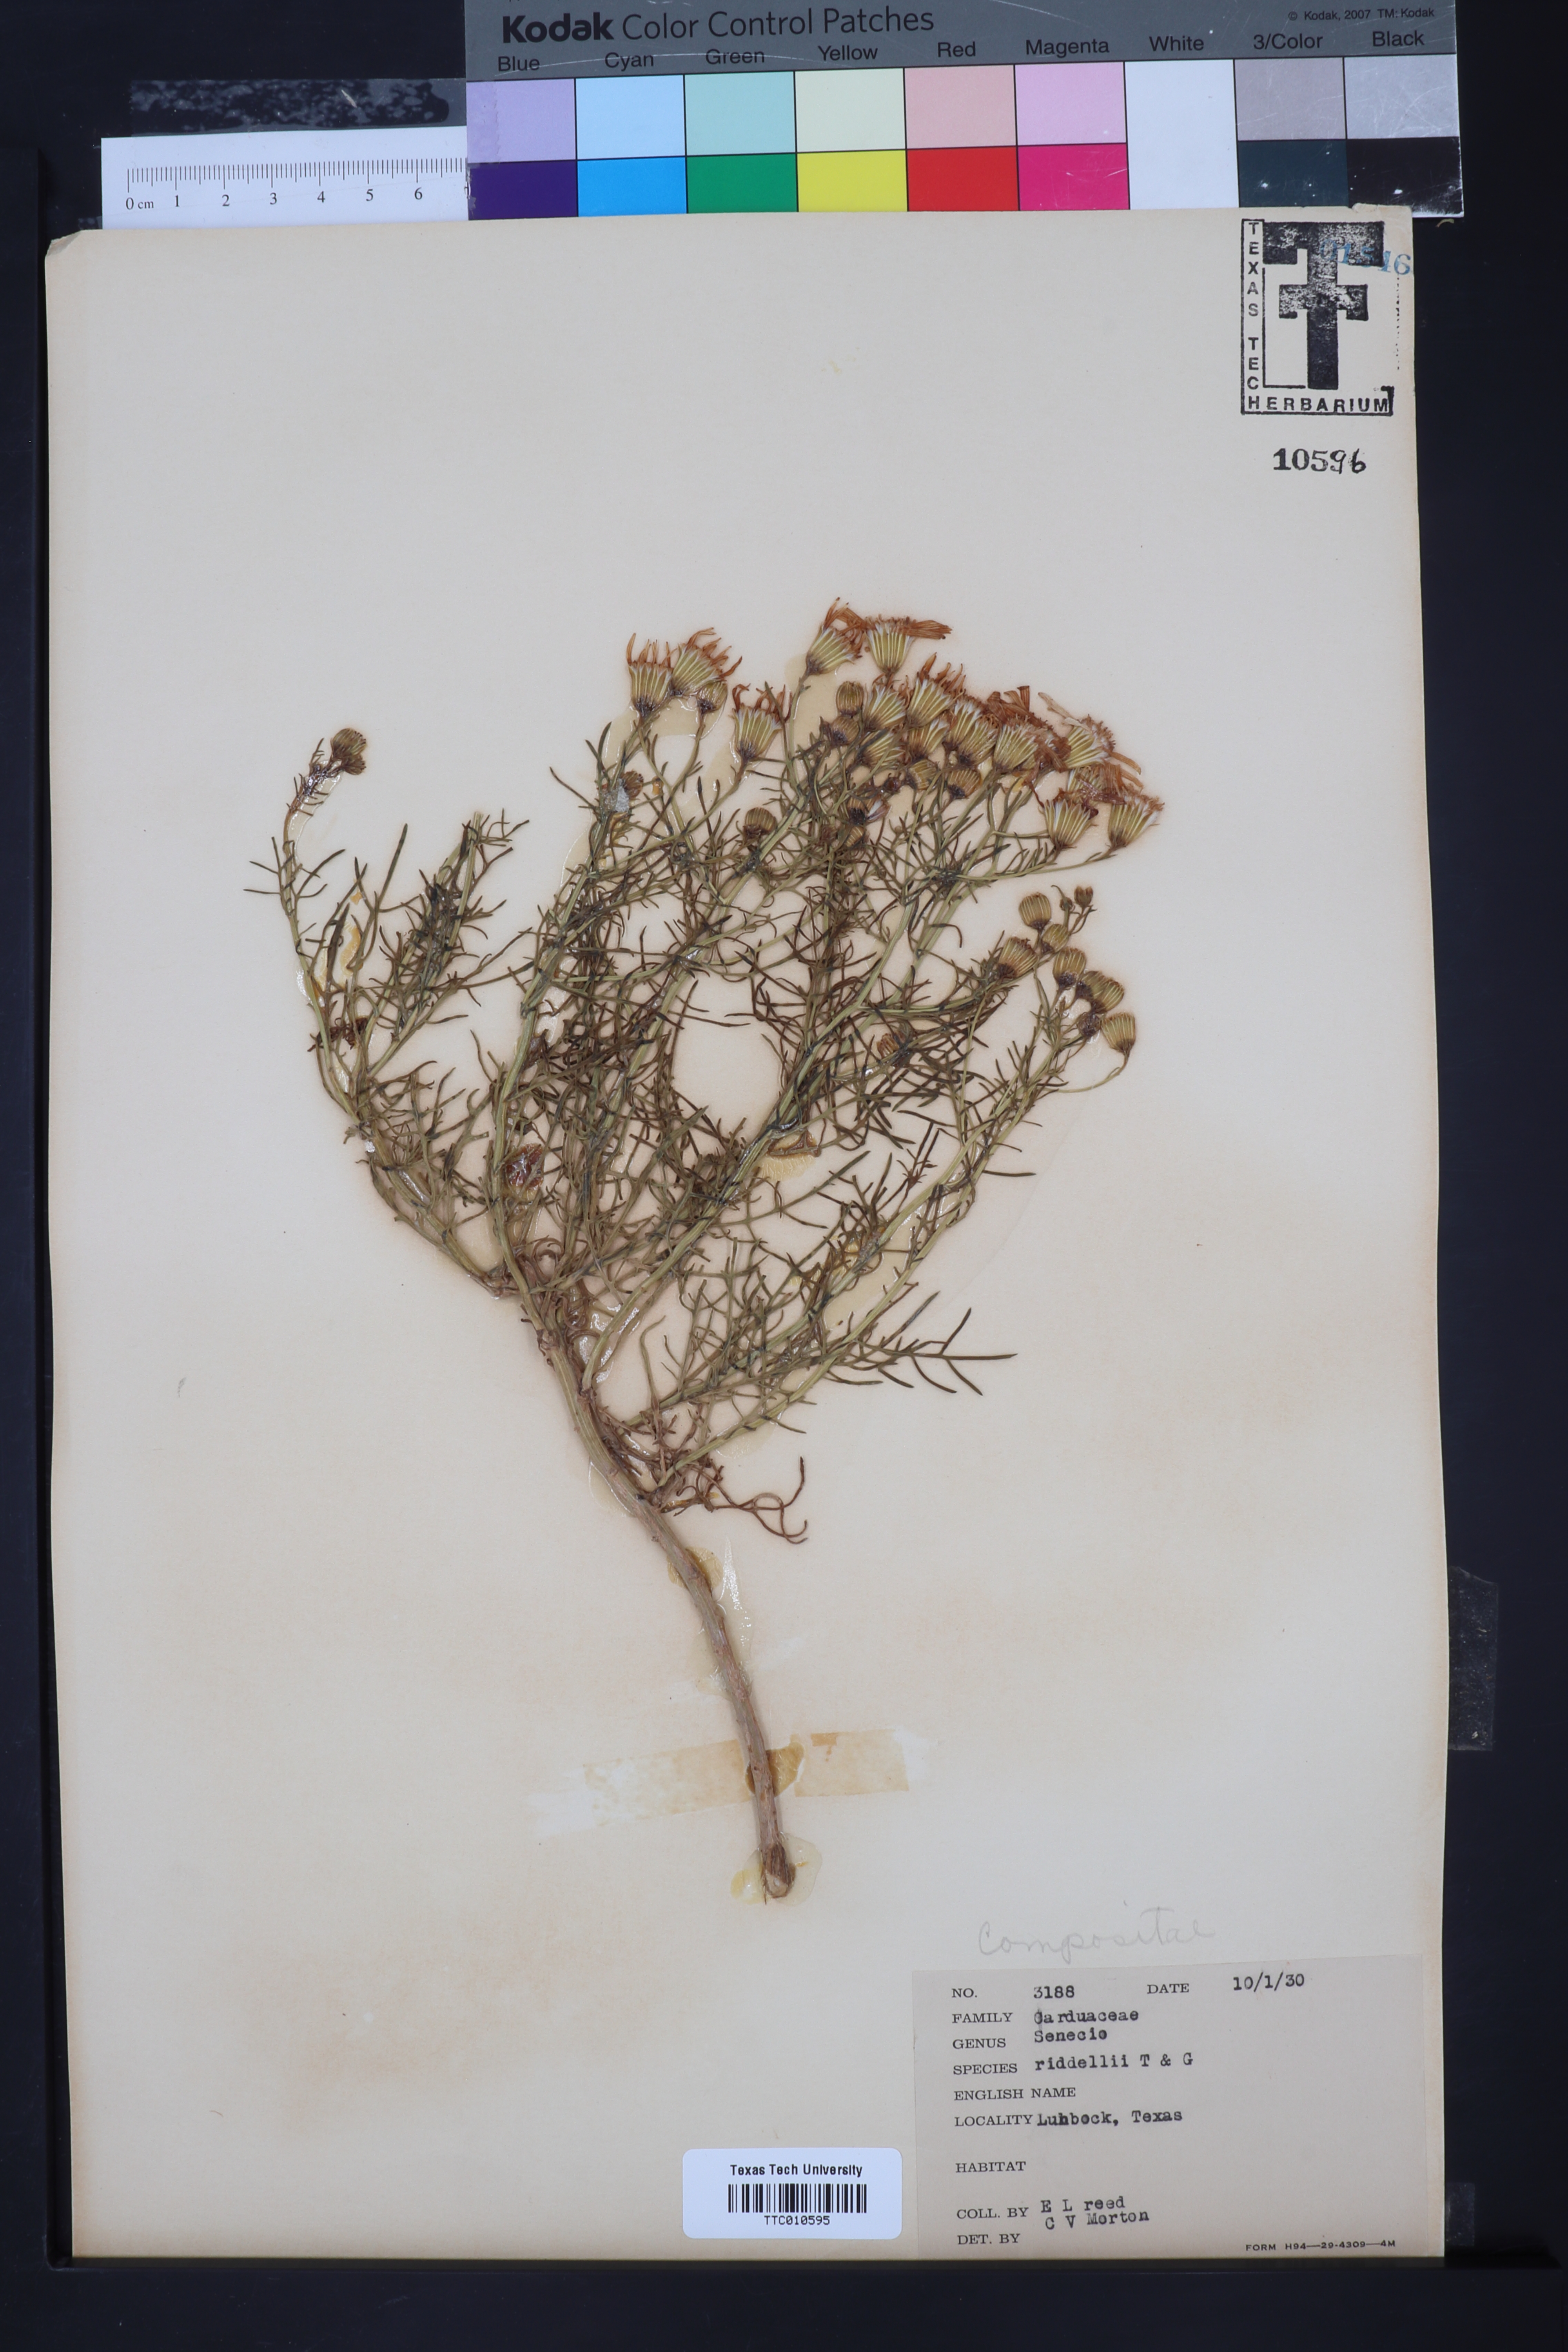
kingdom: Plantae
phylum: Tracheophyta
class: Magnoliopsida
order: Asterales
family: Asteraceae
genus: Senecio
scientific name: Senecio riddellii
